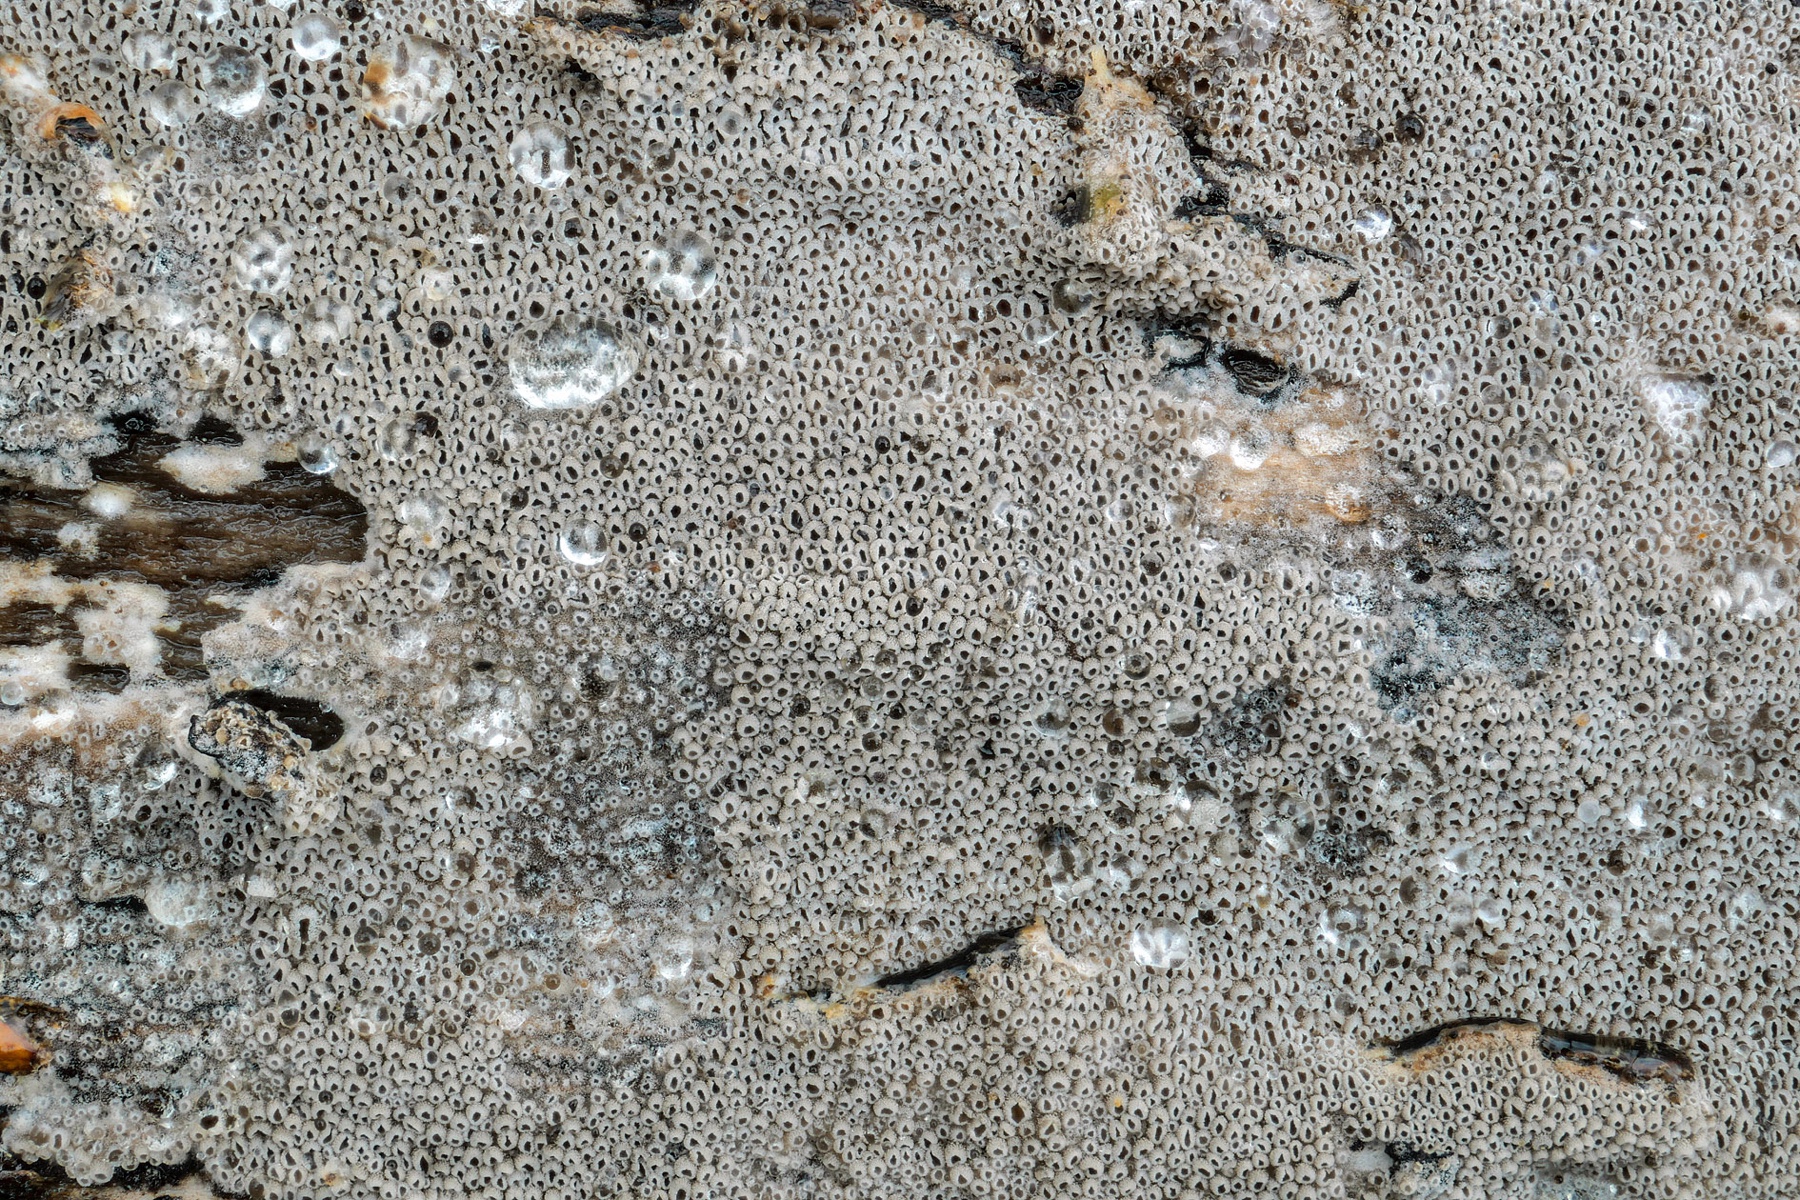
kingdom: Fungi
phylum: Basidiomycota
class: Agaricomycetes
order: Agaricales
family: Pleurotaceae
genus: Resupinatus
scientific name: Resupinatus poriaeformis
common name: tæpperør
